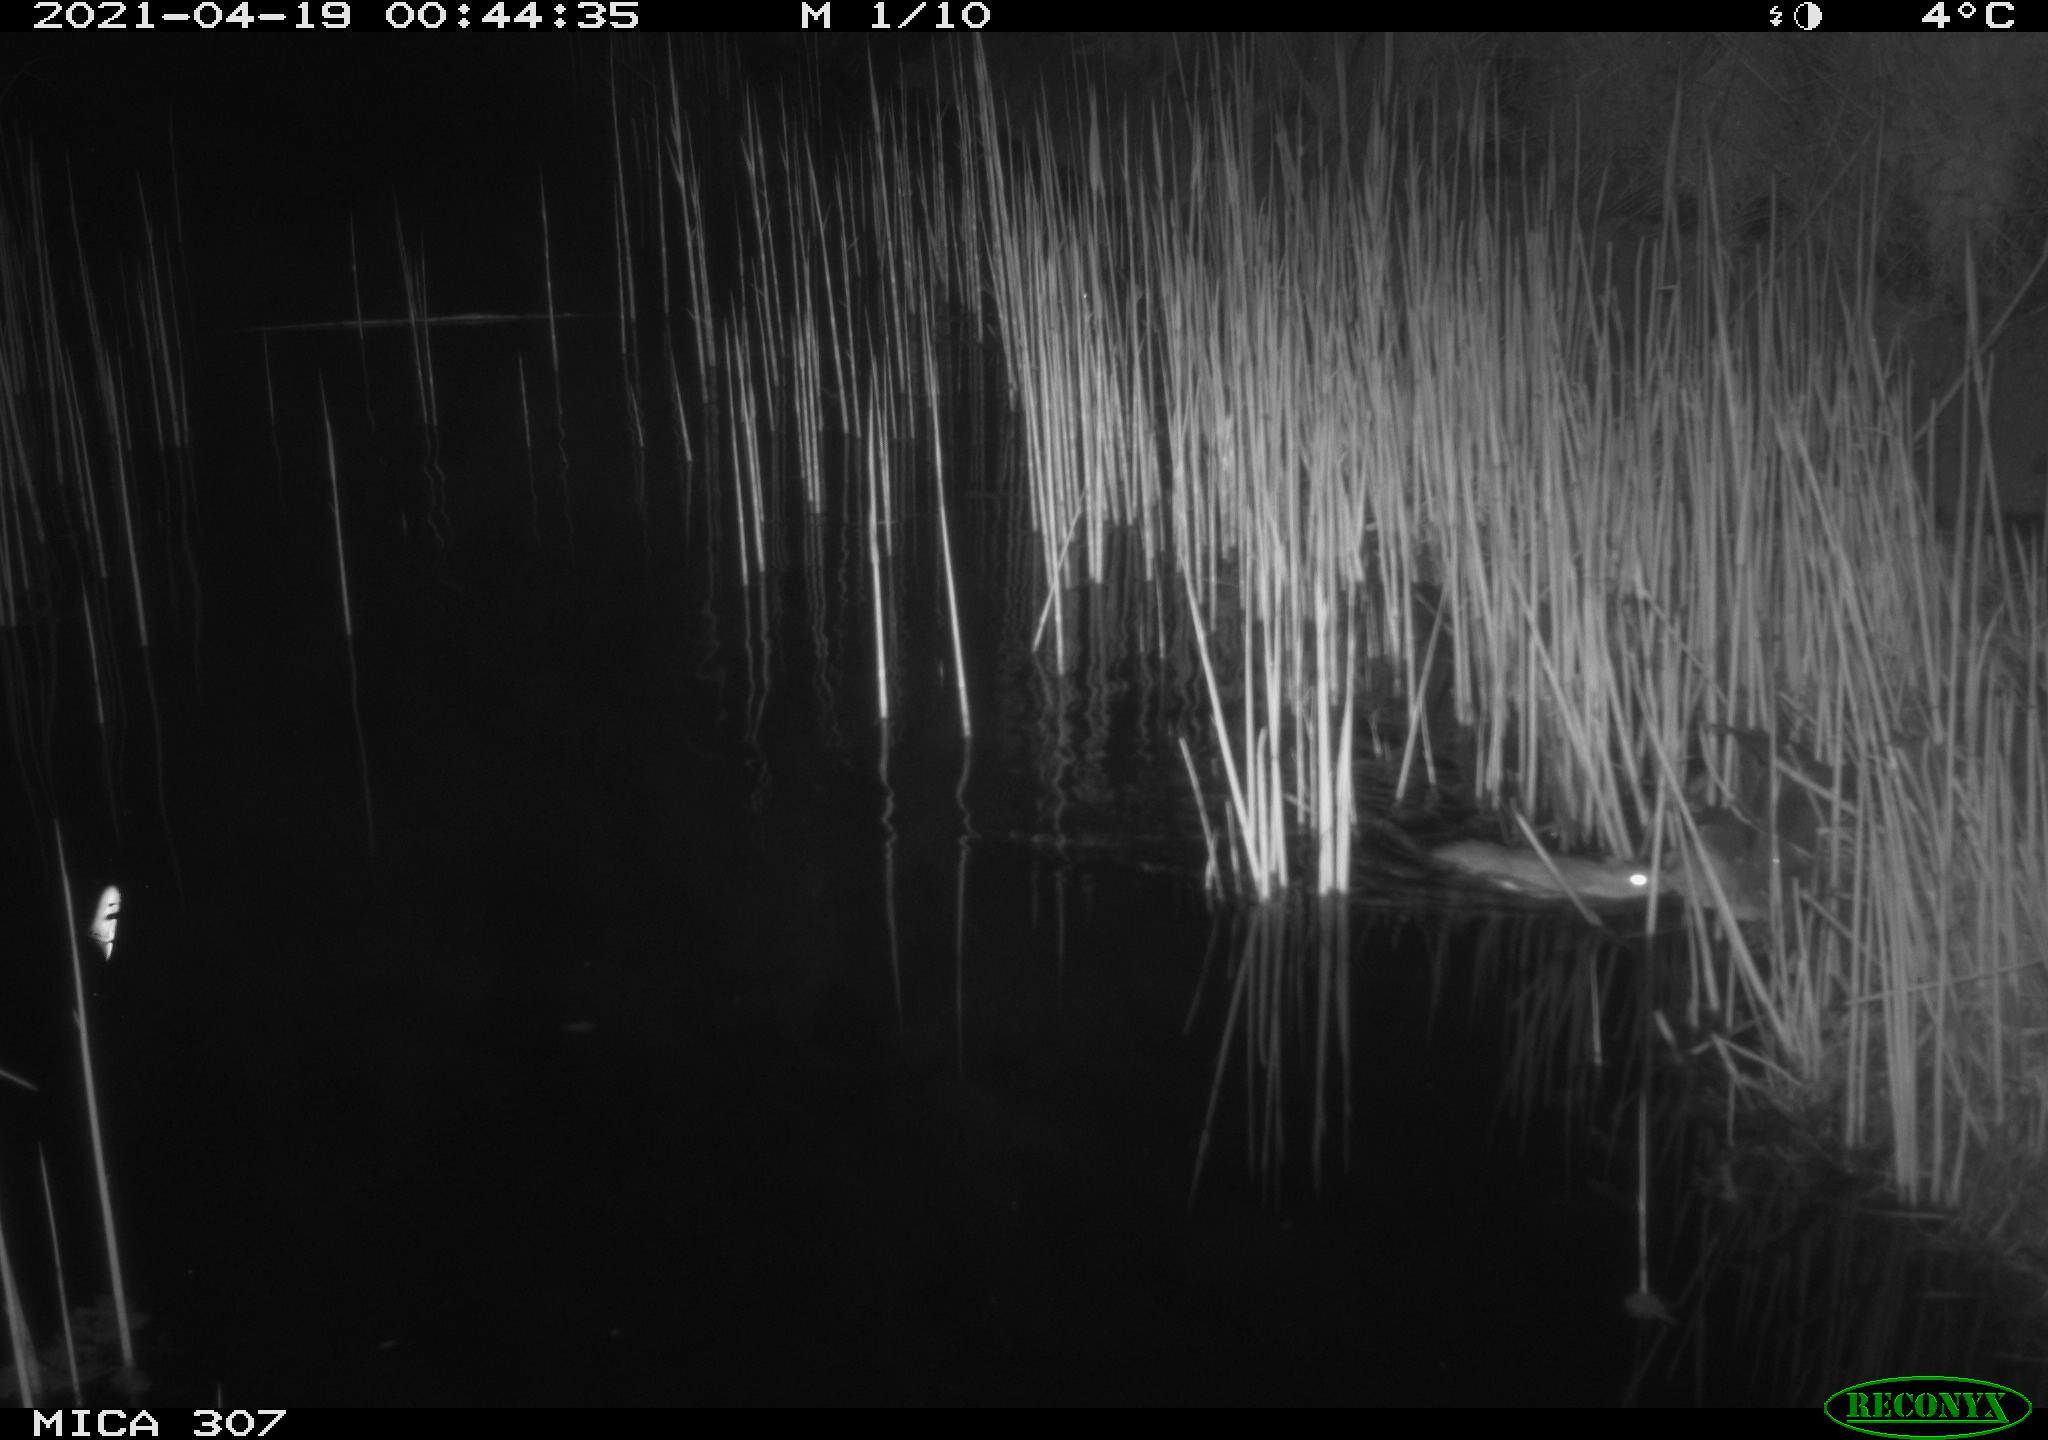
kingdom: Animalia
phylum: Chordata
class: Mammalia
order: Rodentia
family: Muridae
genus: Rattus
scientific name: Rattus norvegicus
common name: Brown rat
